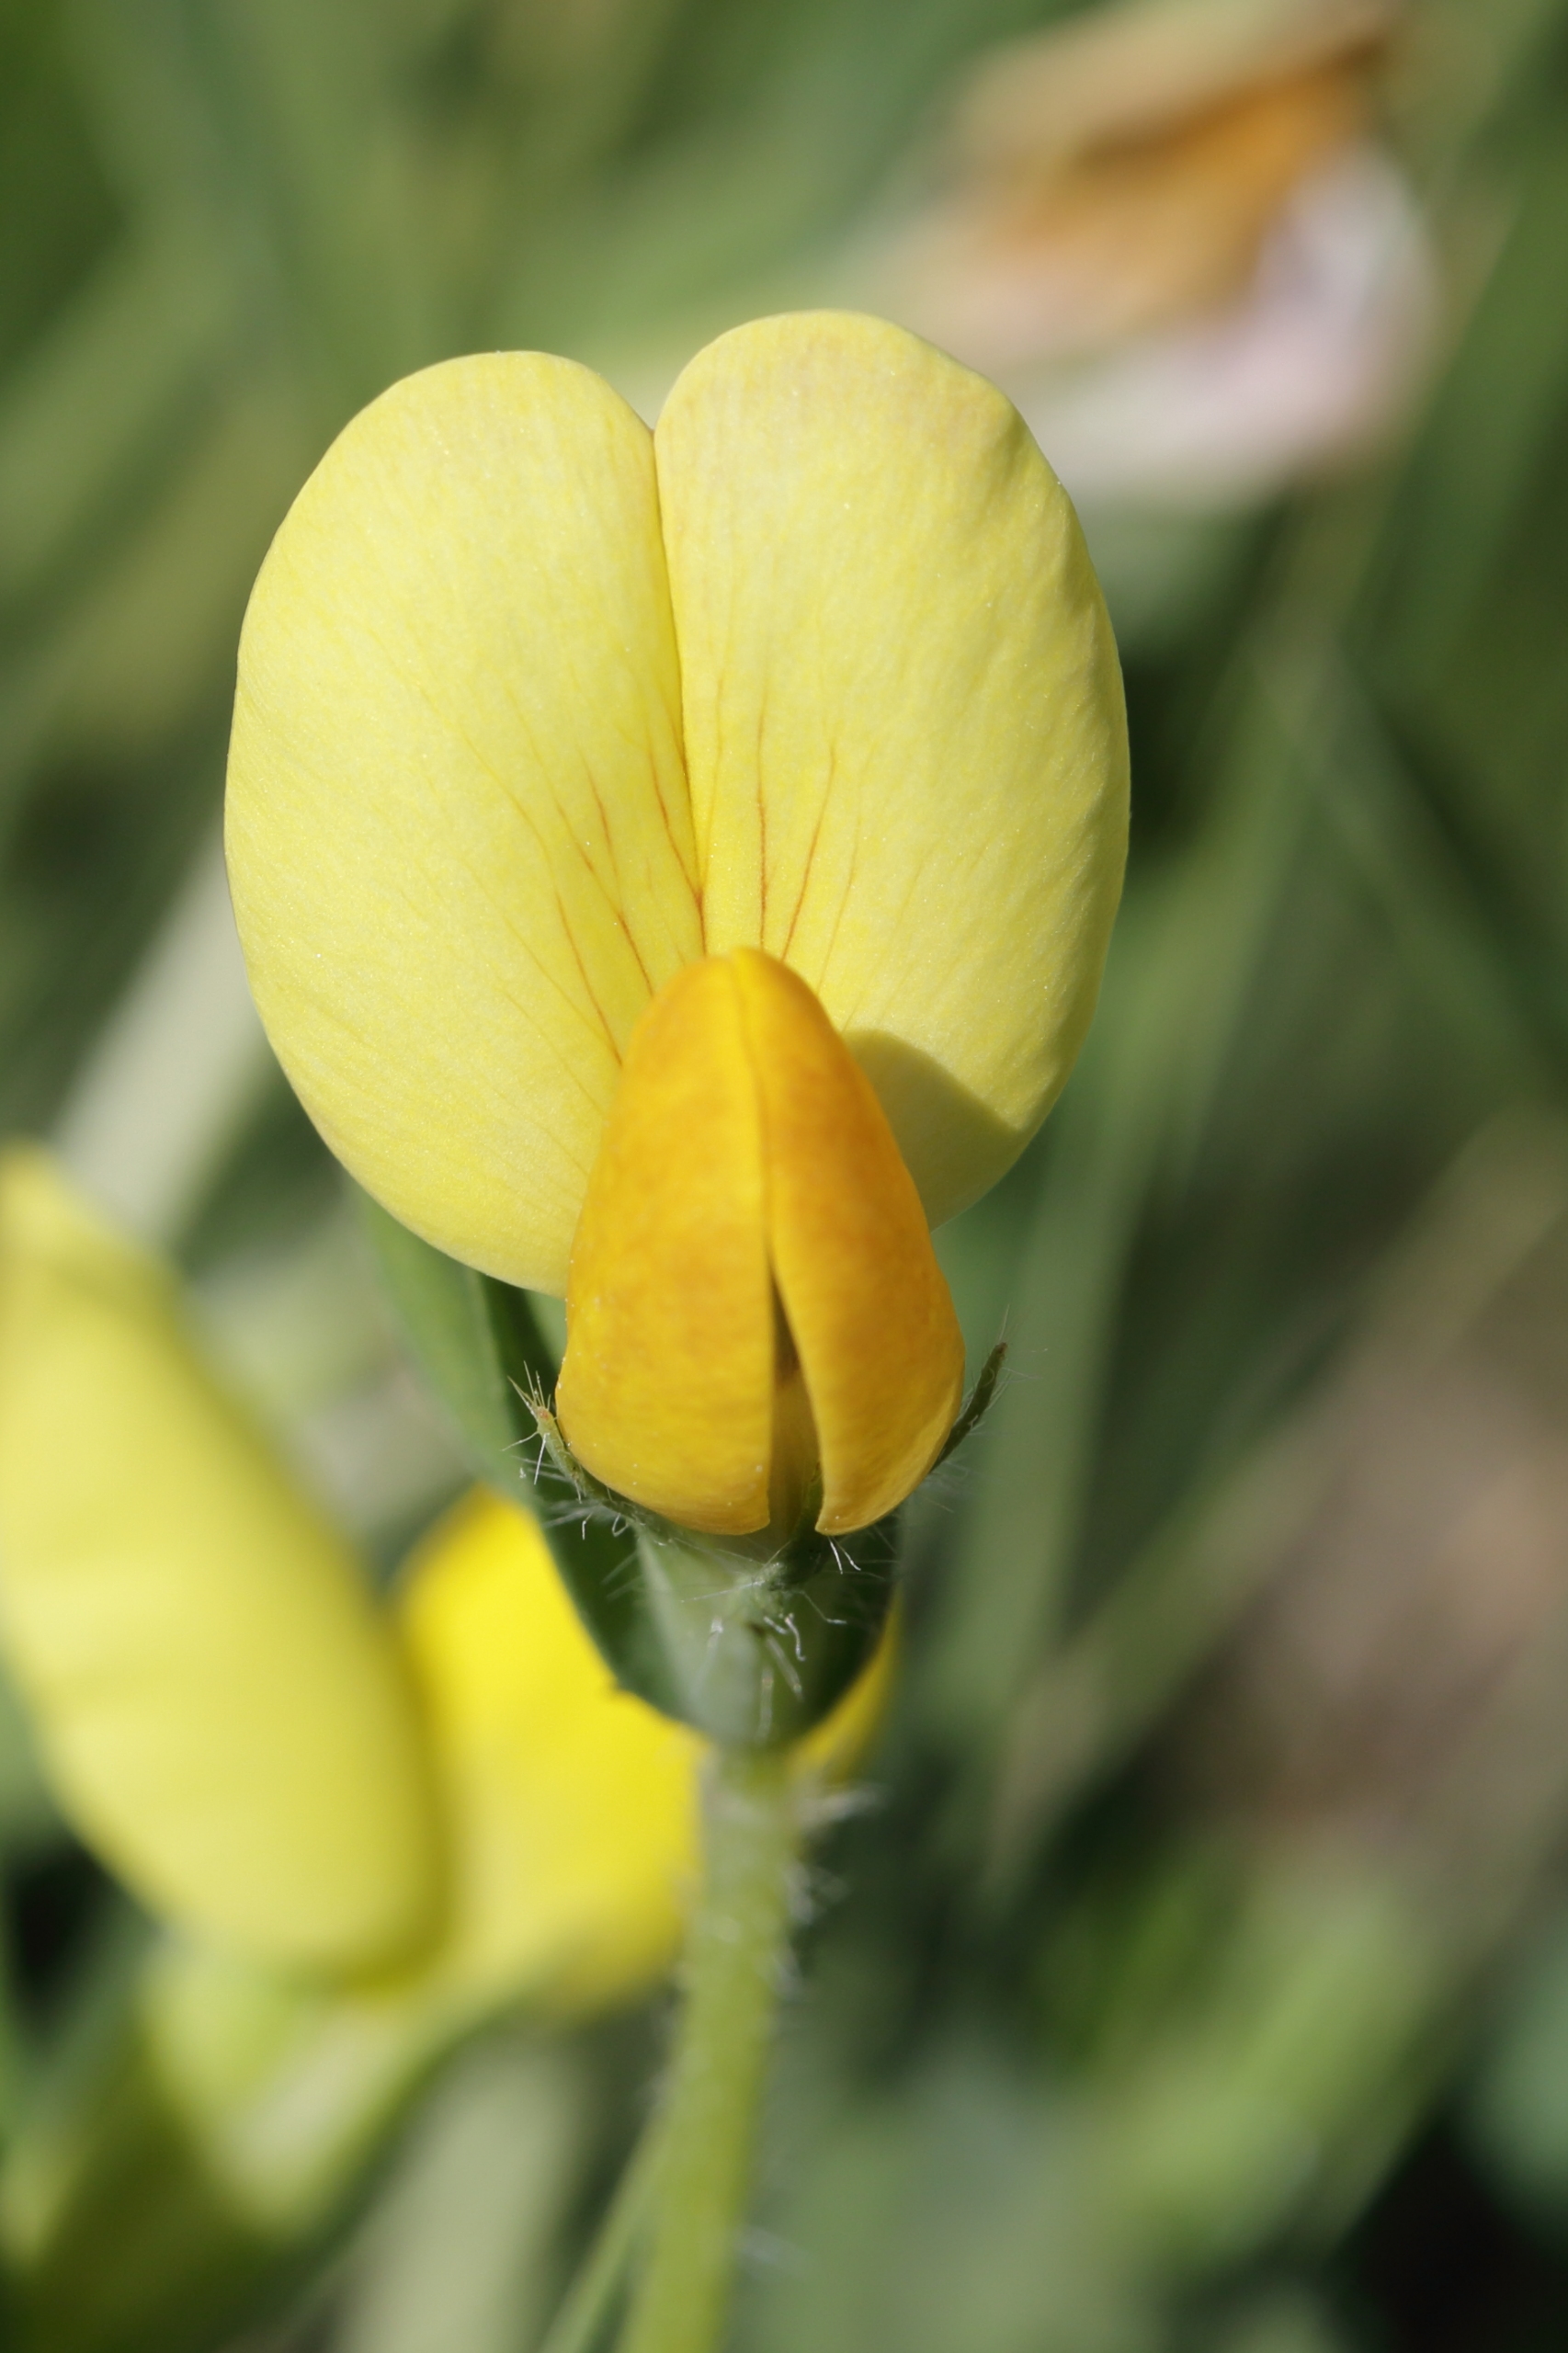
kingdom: Plantae
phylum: Tracheophyta
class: Magnoliopsida
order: Fabales
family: Fabaceae
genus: Lotus
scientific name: Lotus maritimus
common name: Kantbælg
